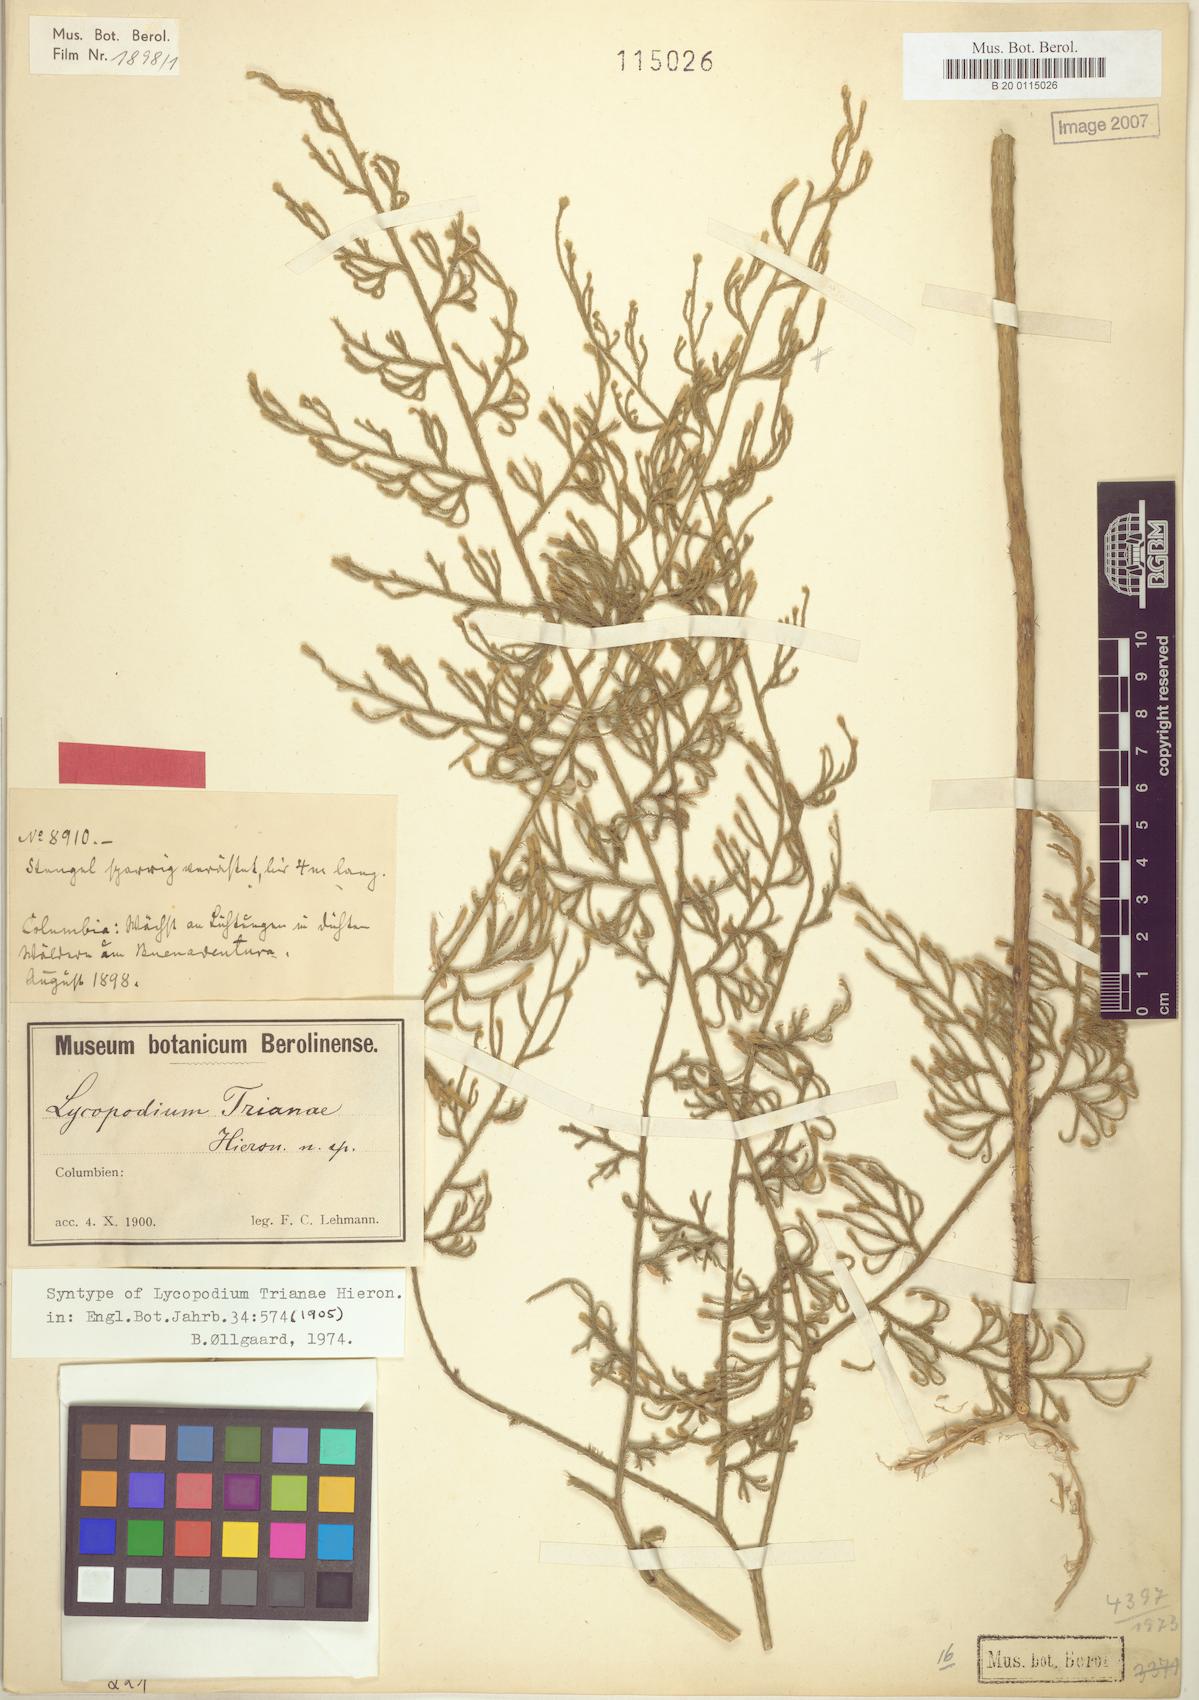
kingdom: Plantae
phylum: Tracheophyta
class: Lycopodiopsida
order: Lycopodiales
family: Lycopodiaceae
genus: Palhinhaea
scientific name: Palhinhaea trianae
